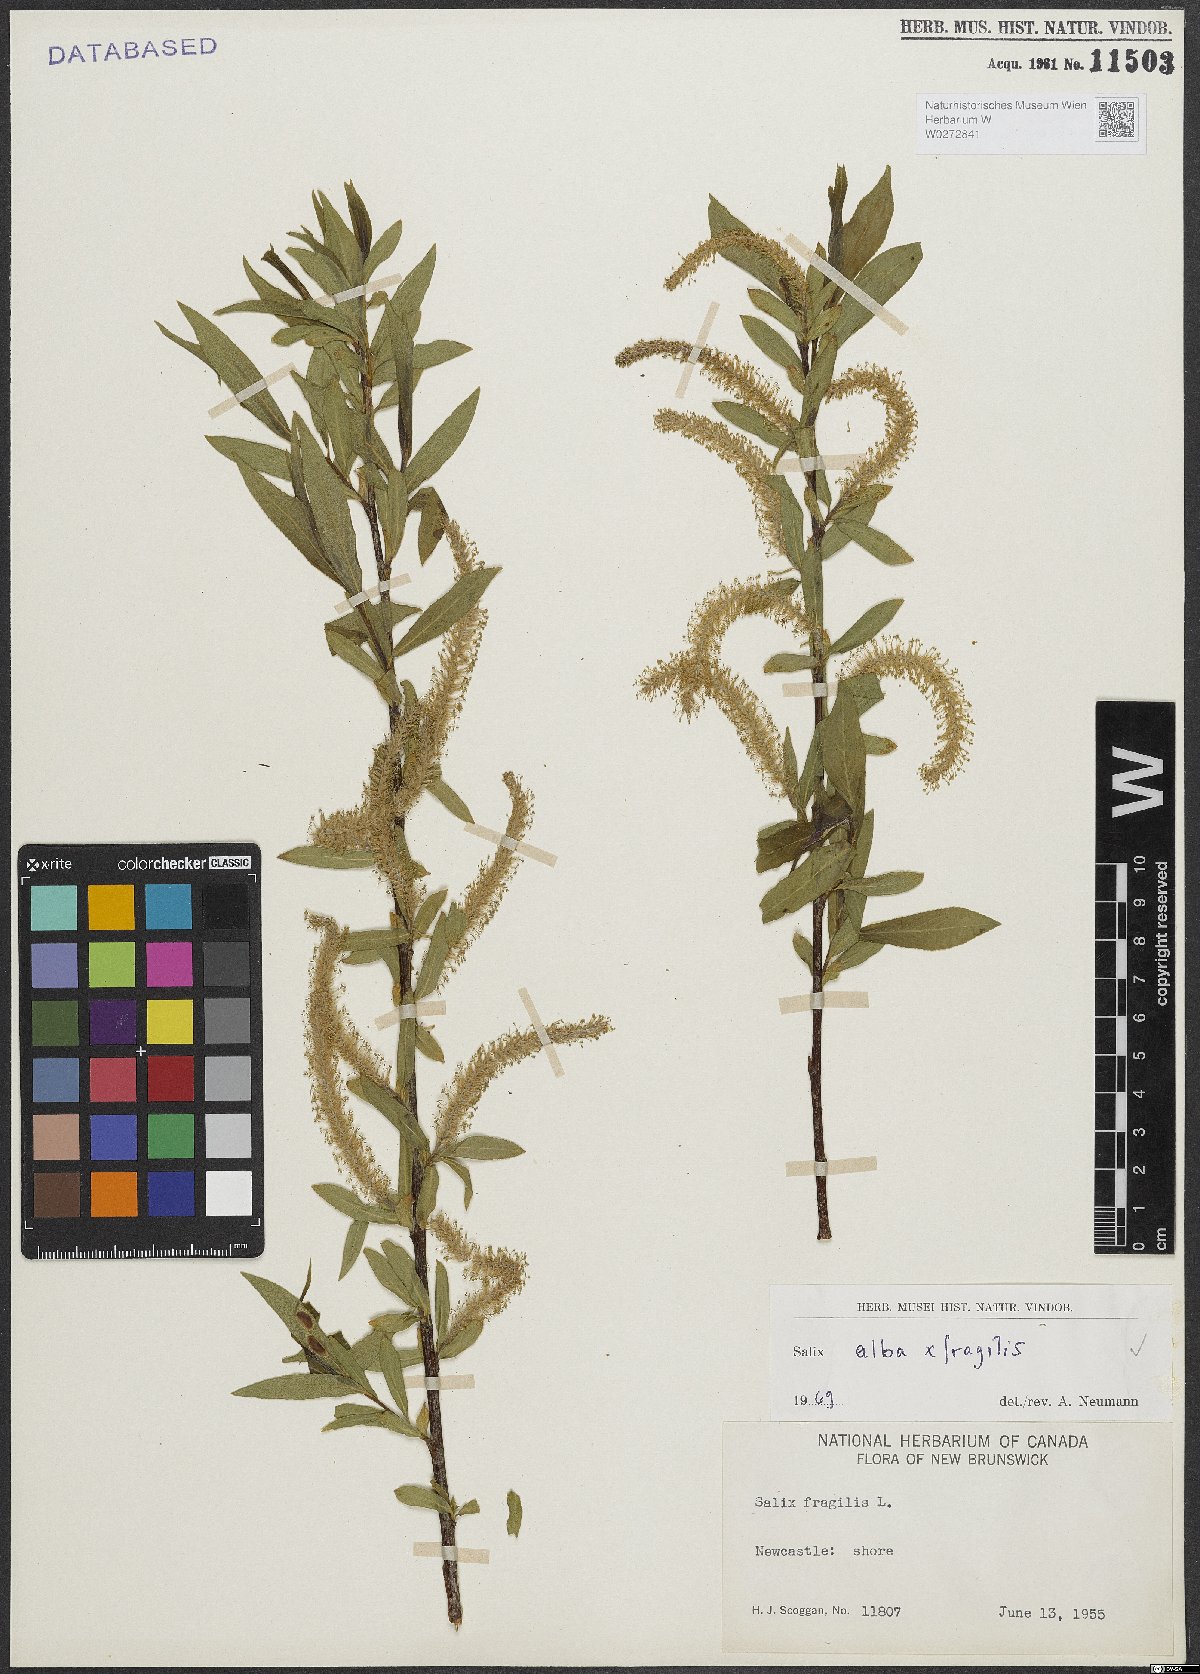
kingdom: Plantae
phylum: Tracheophyta
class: Magnoliopsida
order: Malpighiales
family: Salicaceae
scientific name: Salicaceae
